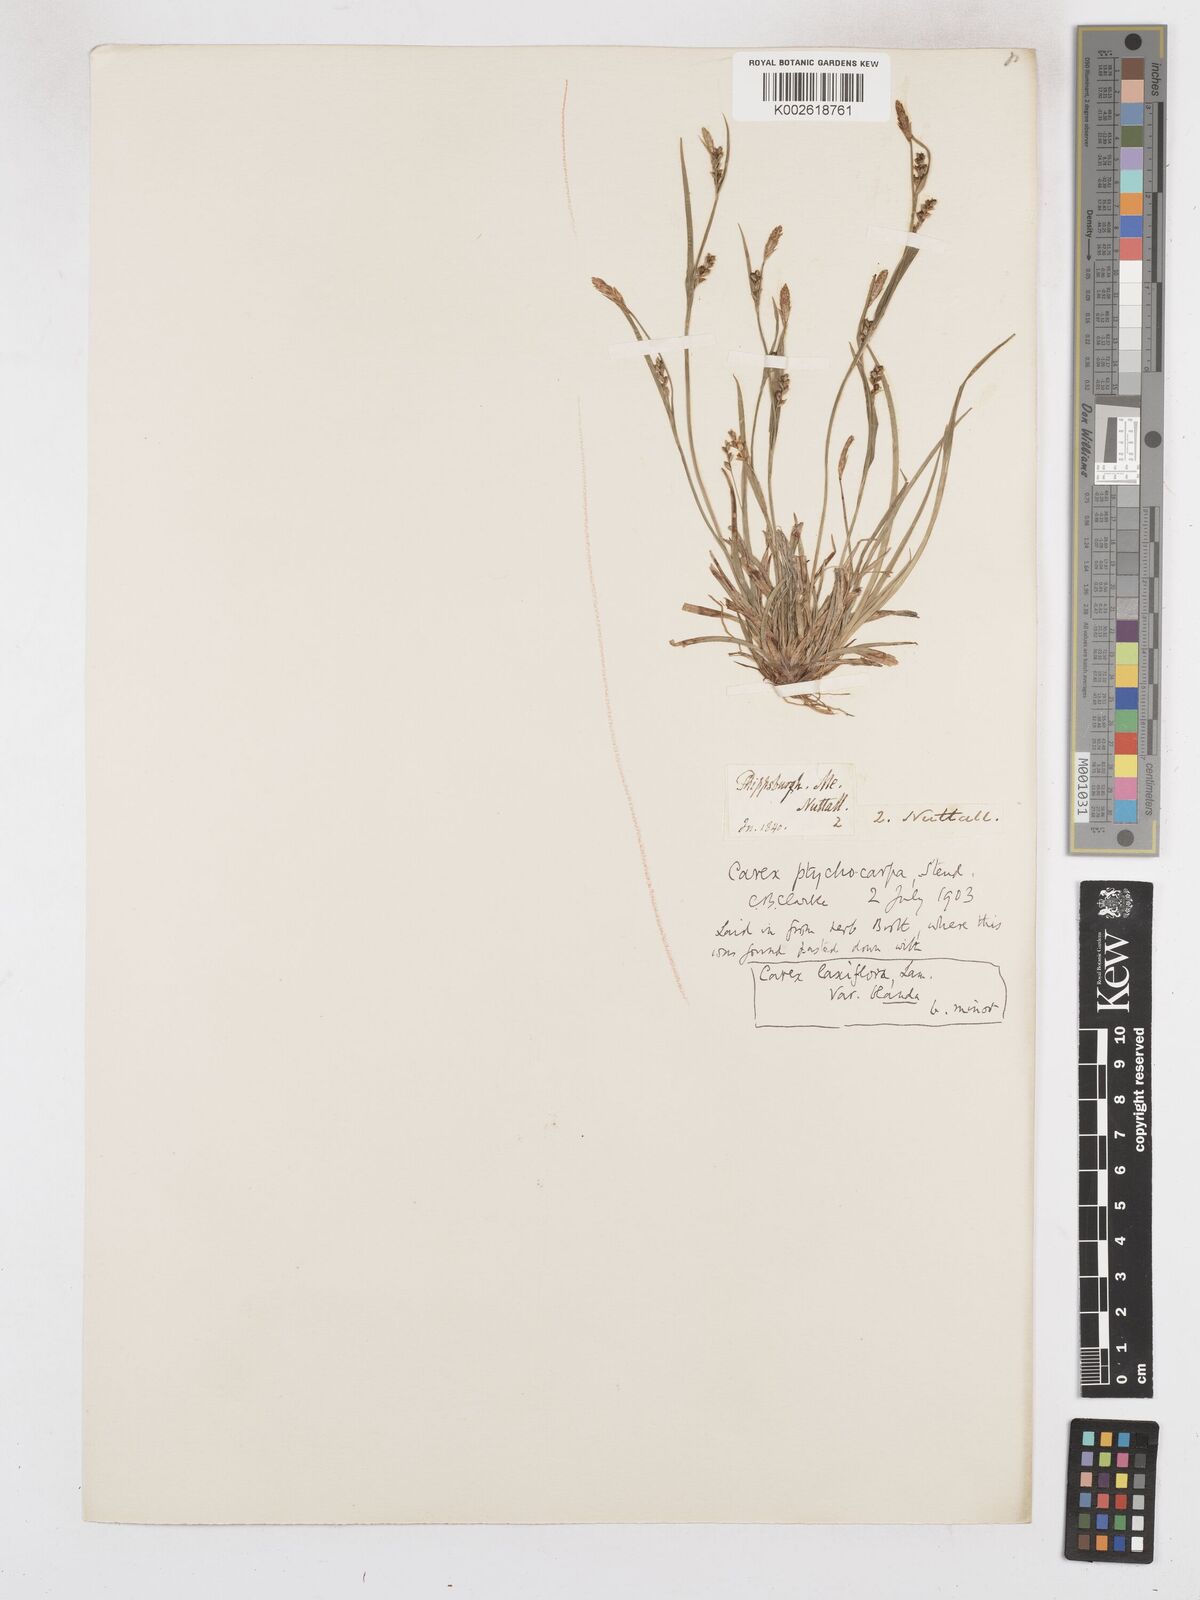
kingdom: Plantae
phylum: Tracheophyta
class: Liliopsida
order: Poales
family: Cyperaceae
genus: Carex
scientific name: Carex abscondita
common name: Thicket sedge
